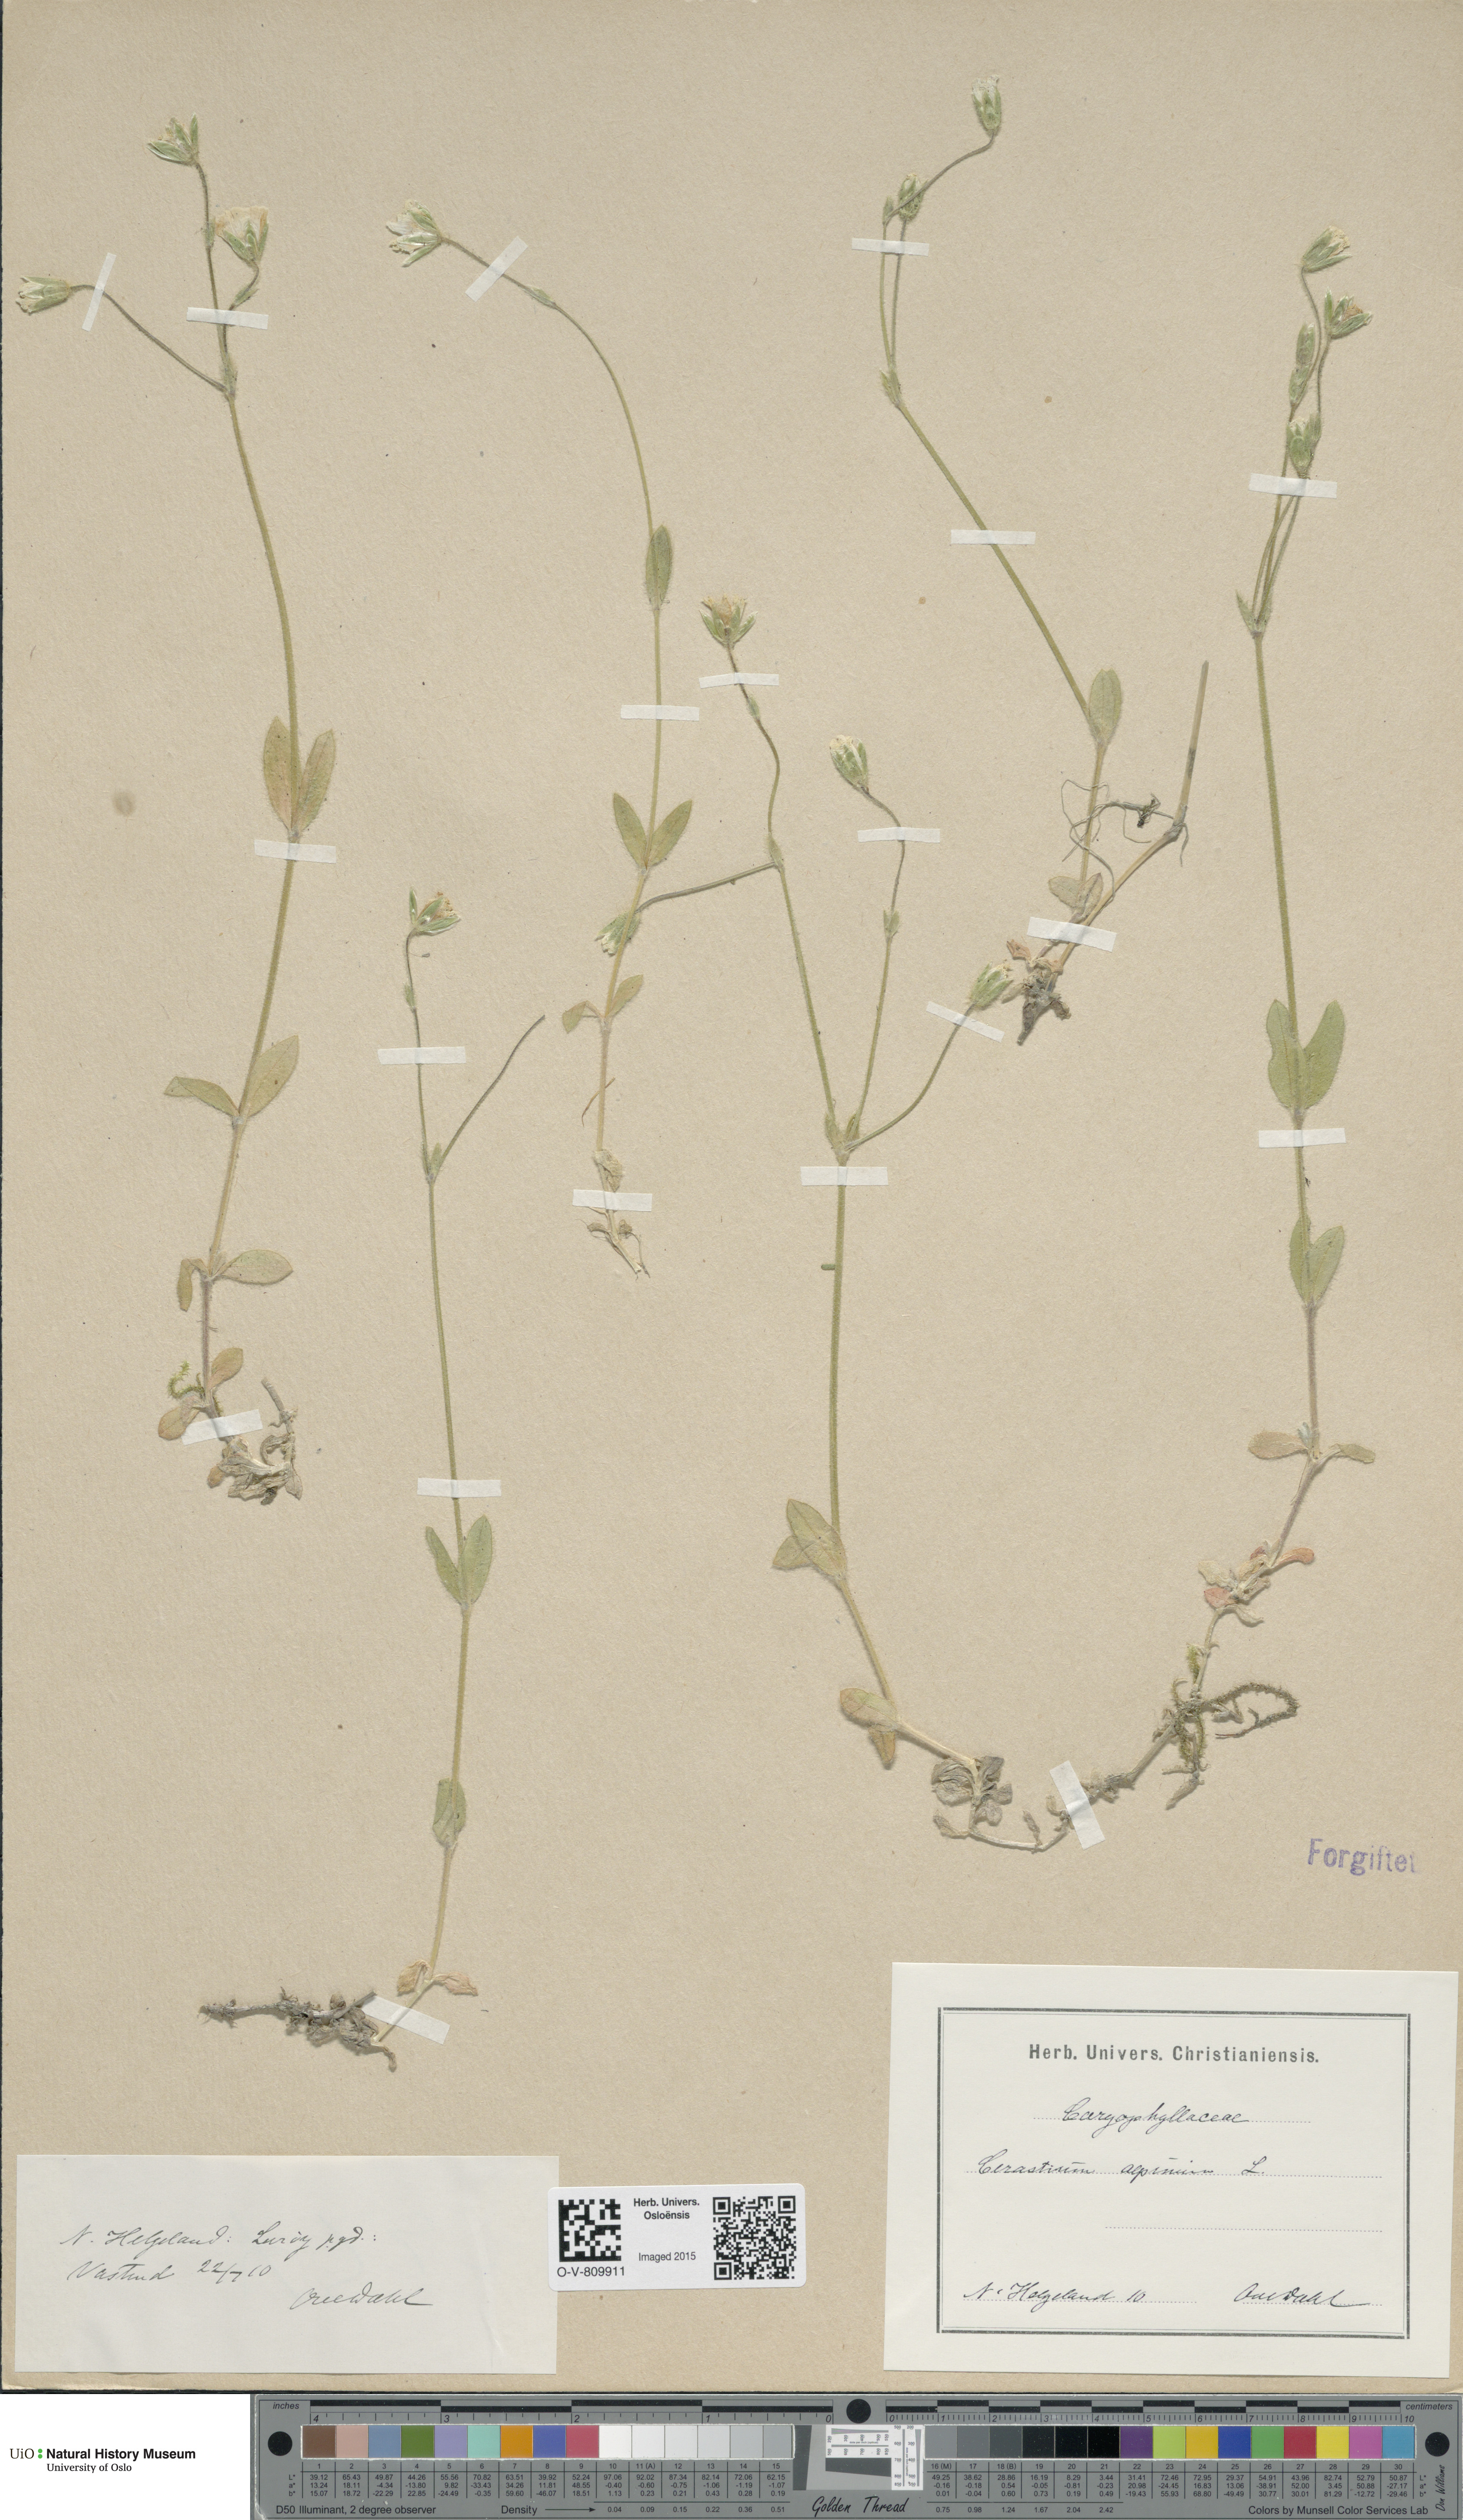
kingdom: Plantae
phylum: Tracheophyta
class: Magnoliopsida
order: Caryophyllales
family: Caryophyllaceae
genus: Cerastium
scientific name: Cerastium alpinum
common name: Alpine mouse-ear
